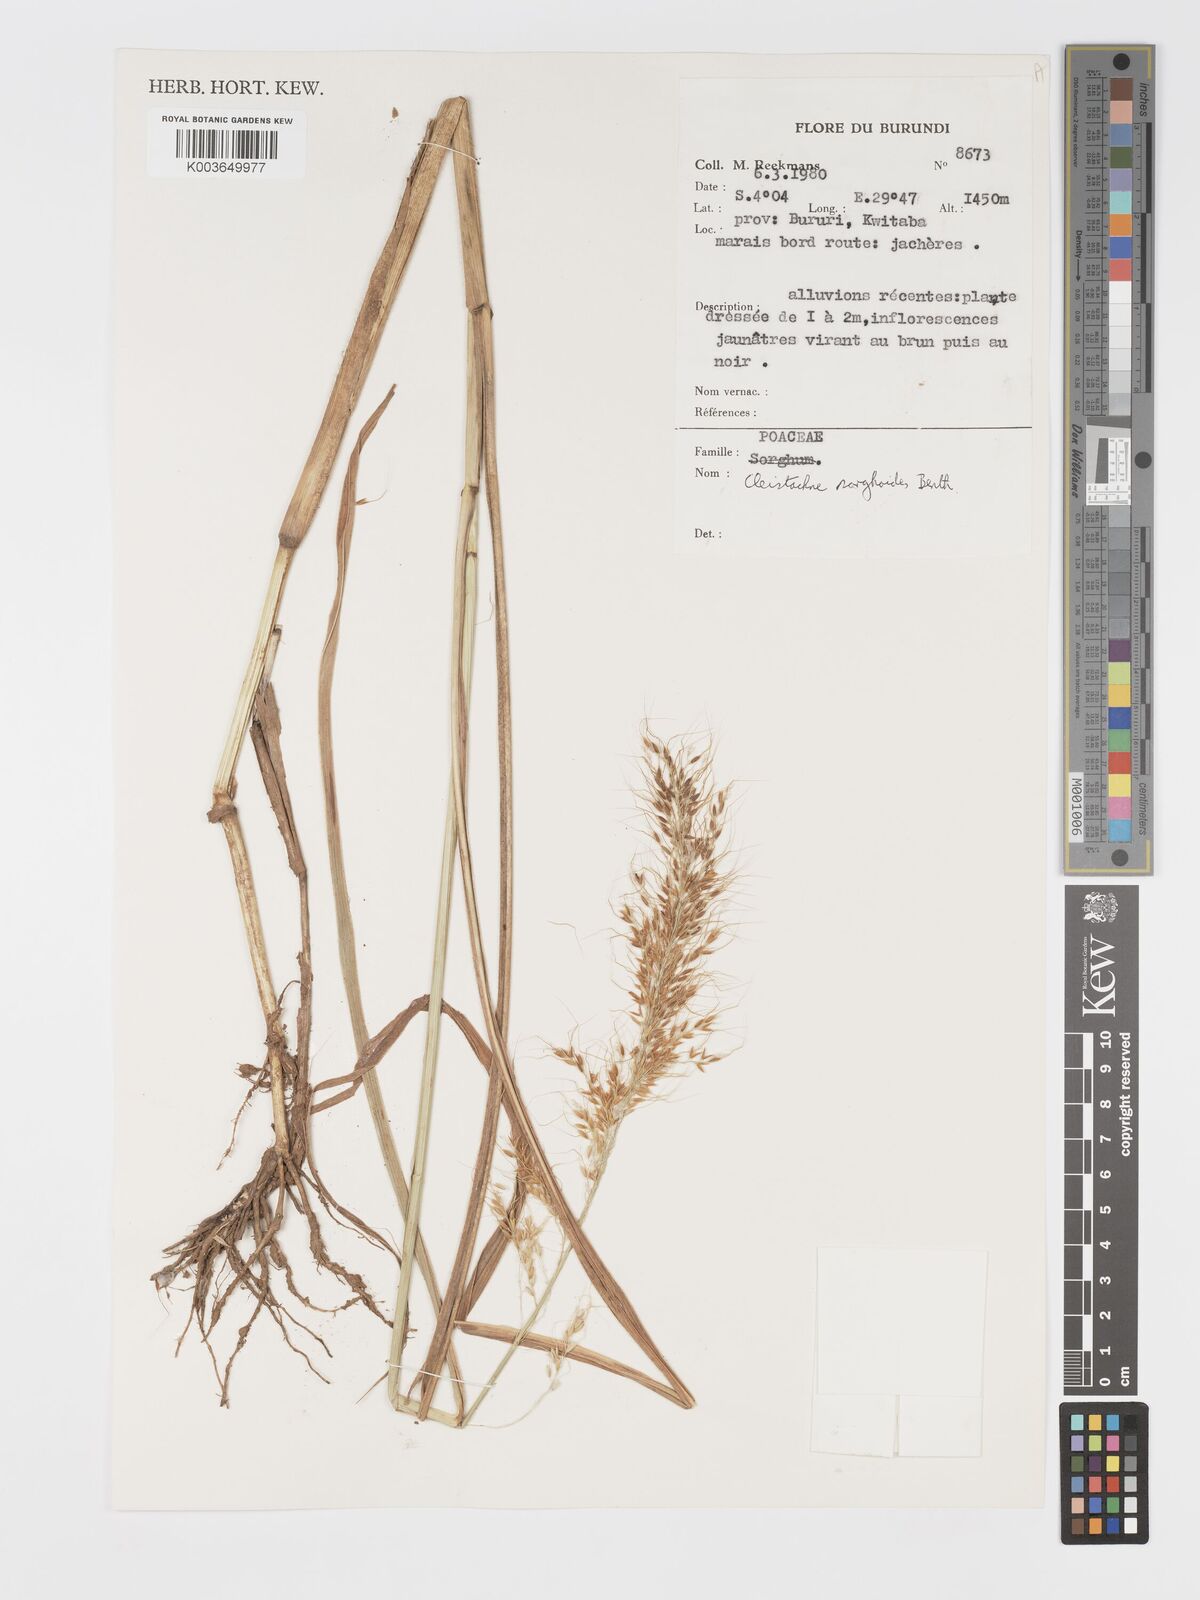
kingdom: Plantae
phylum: Tracheophyta
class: Liliopsida
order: Poales
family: Poaceae
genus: Cleistachne
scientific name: Cleistachne sorghoides
